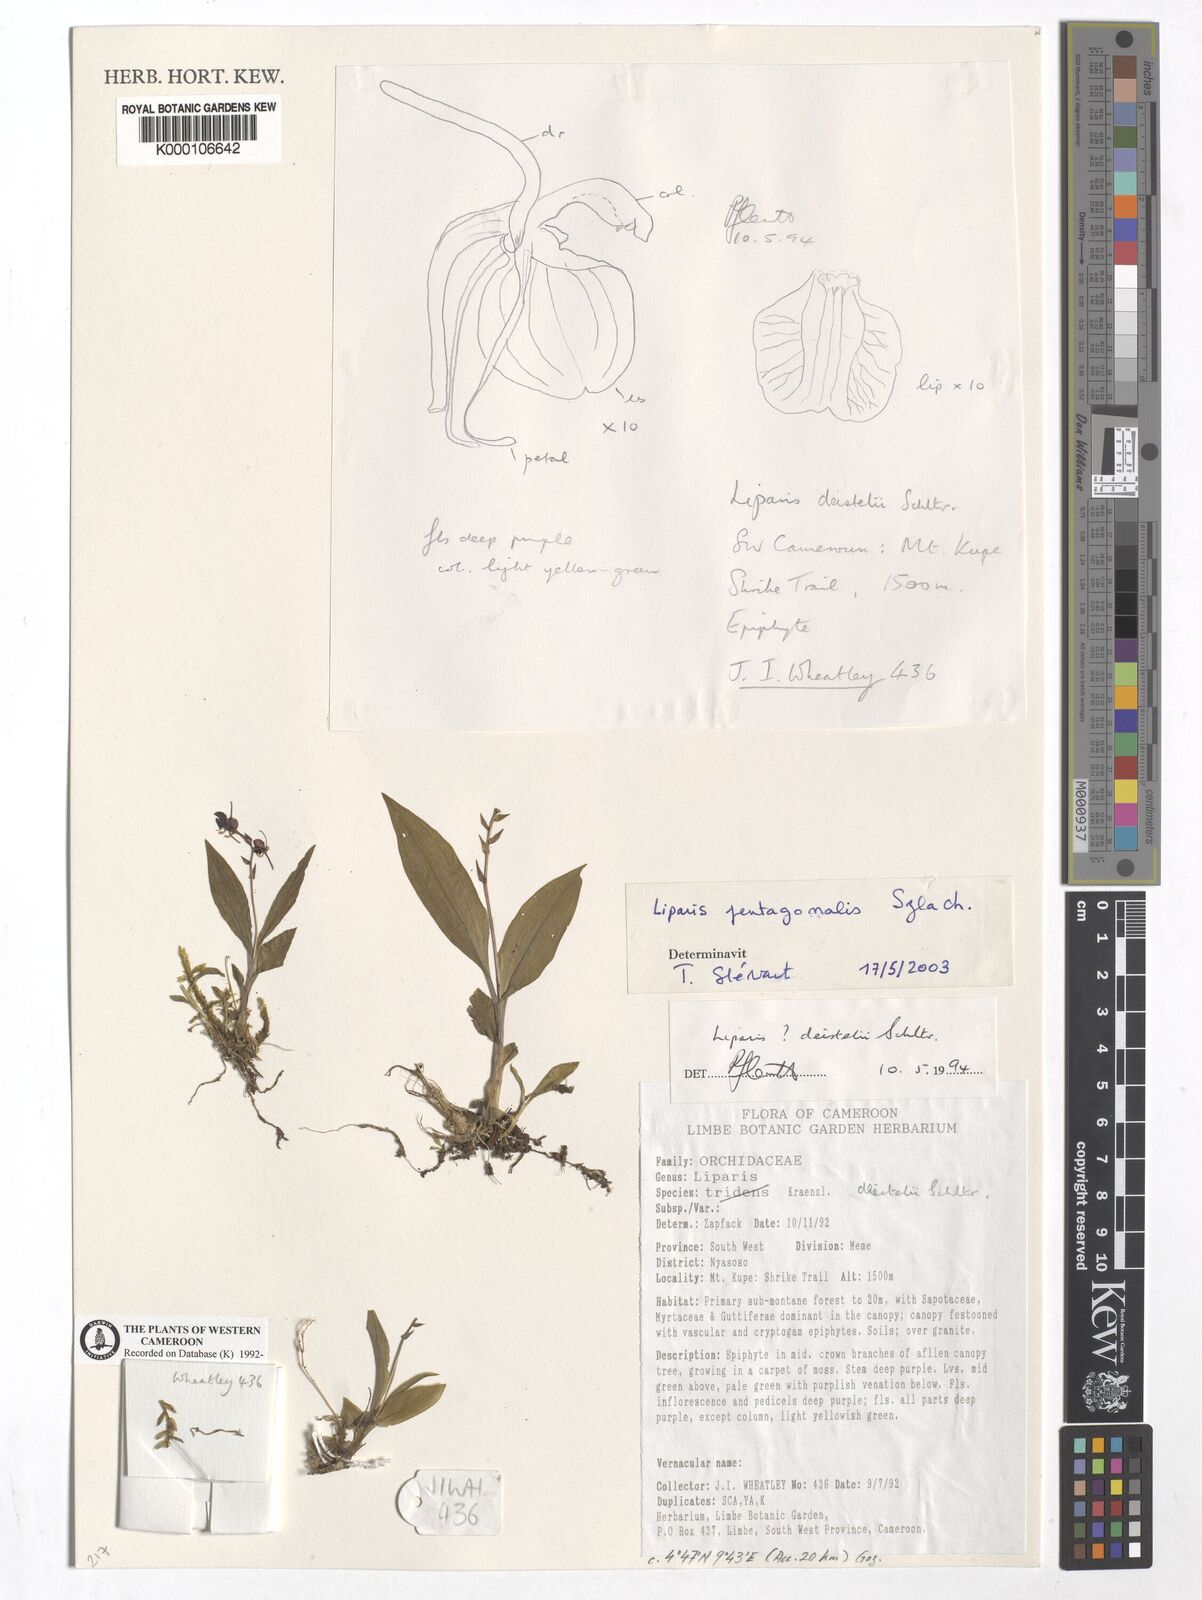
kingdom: Plantae
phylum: Tracheophyta
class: Liliopsida
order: Asparagales
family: Orchidaceae
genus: Liparis
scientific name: Liparis suborbicularis
